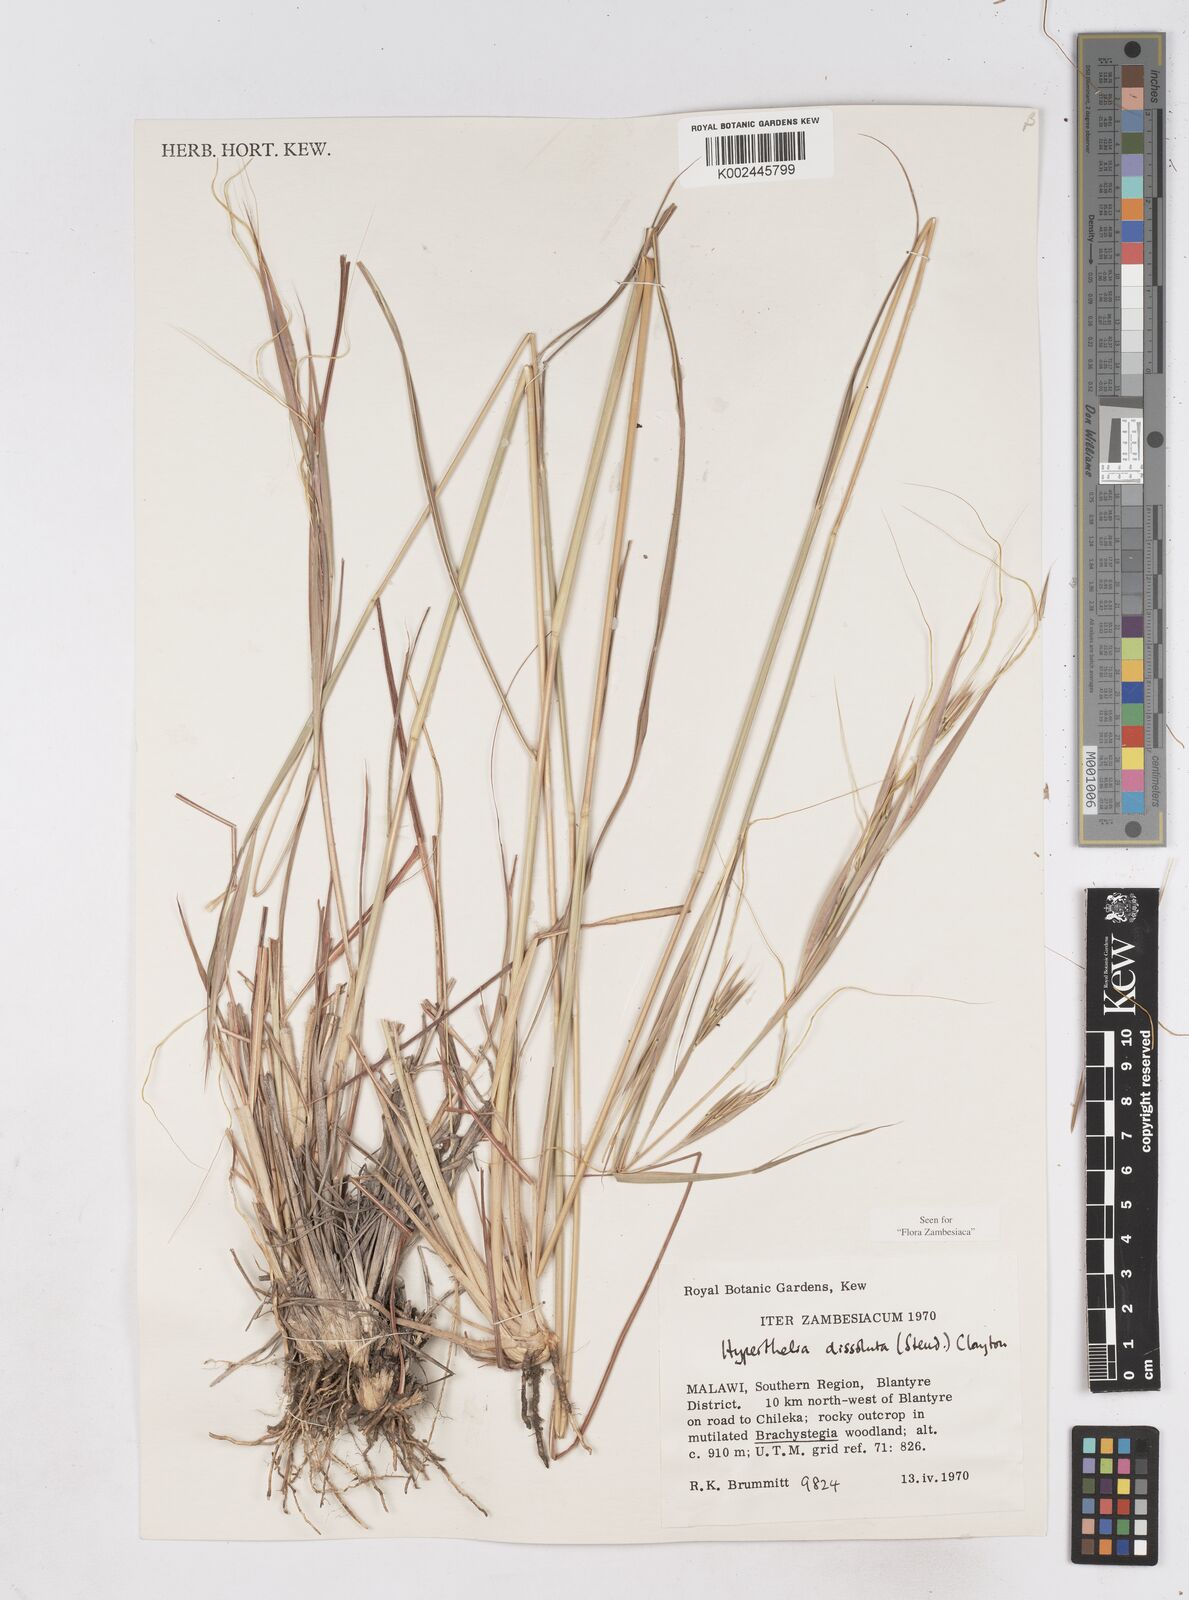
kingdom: Plantae
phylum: Tracheophyta
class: Liliopsida
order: Poales
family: Poaceae
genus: Hyperthelia
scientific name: Hyperthelia dissoluta
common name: Yellow thatching grass
